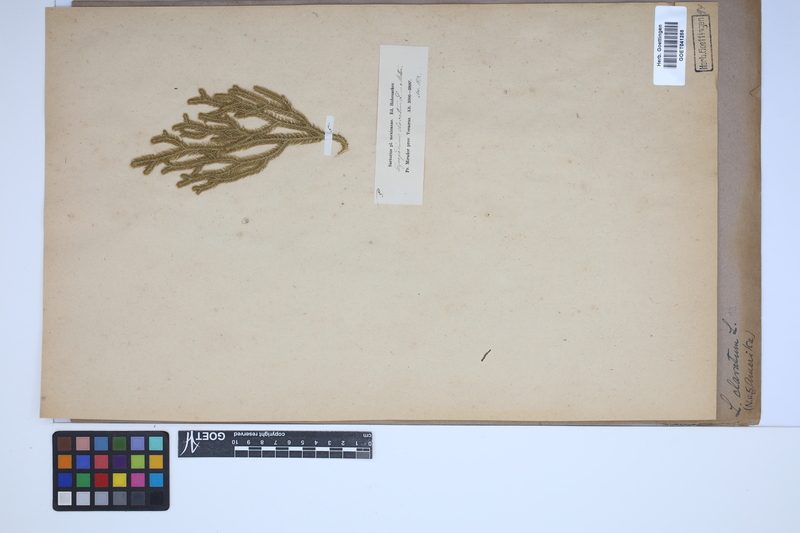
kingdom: Plantae
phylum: Tracheophyta
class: Lycopodiopsida
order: Lycopodiales
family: Lycopodiaceae
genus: Lycopodium
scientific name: Lycopodium clavatum
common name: Stag's-horn clubmoss
